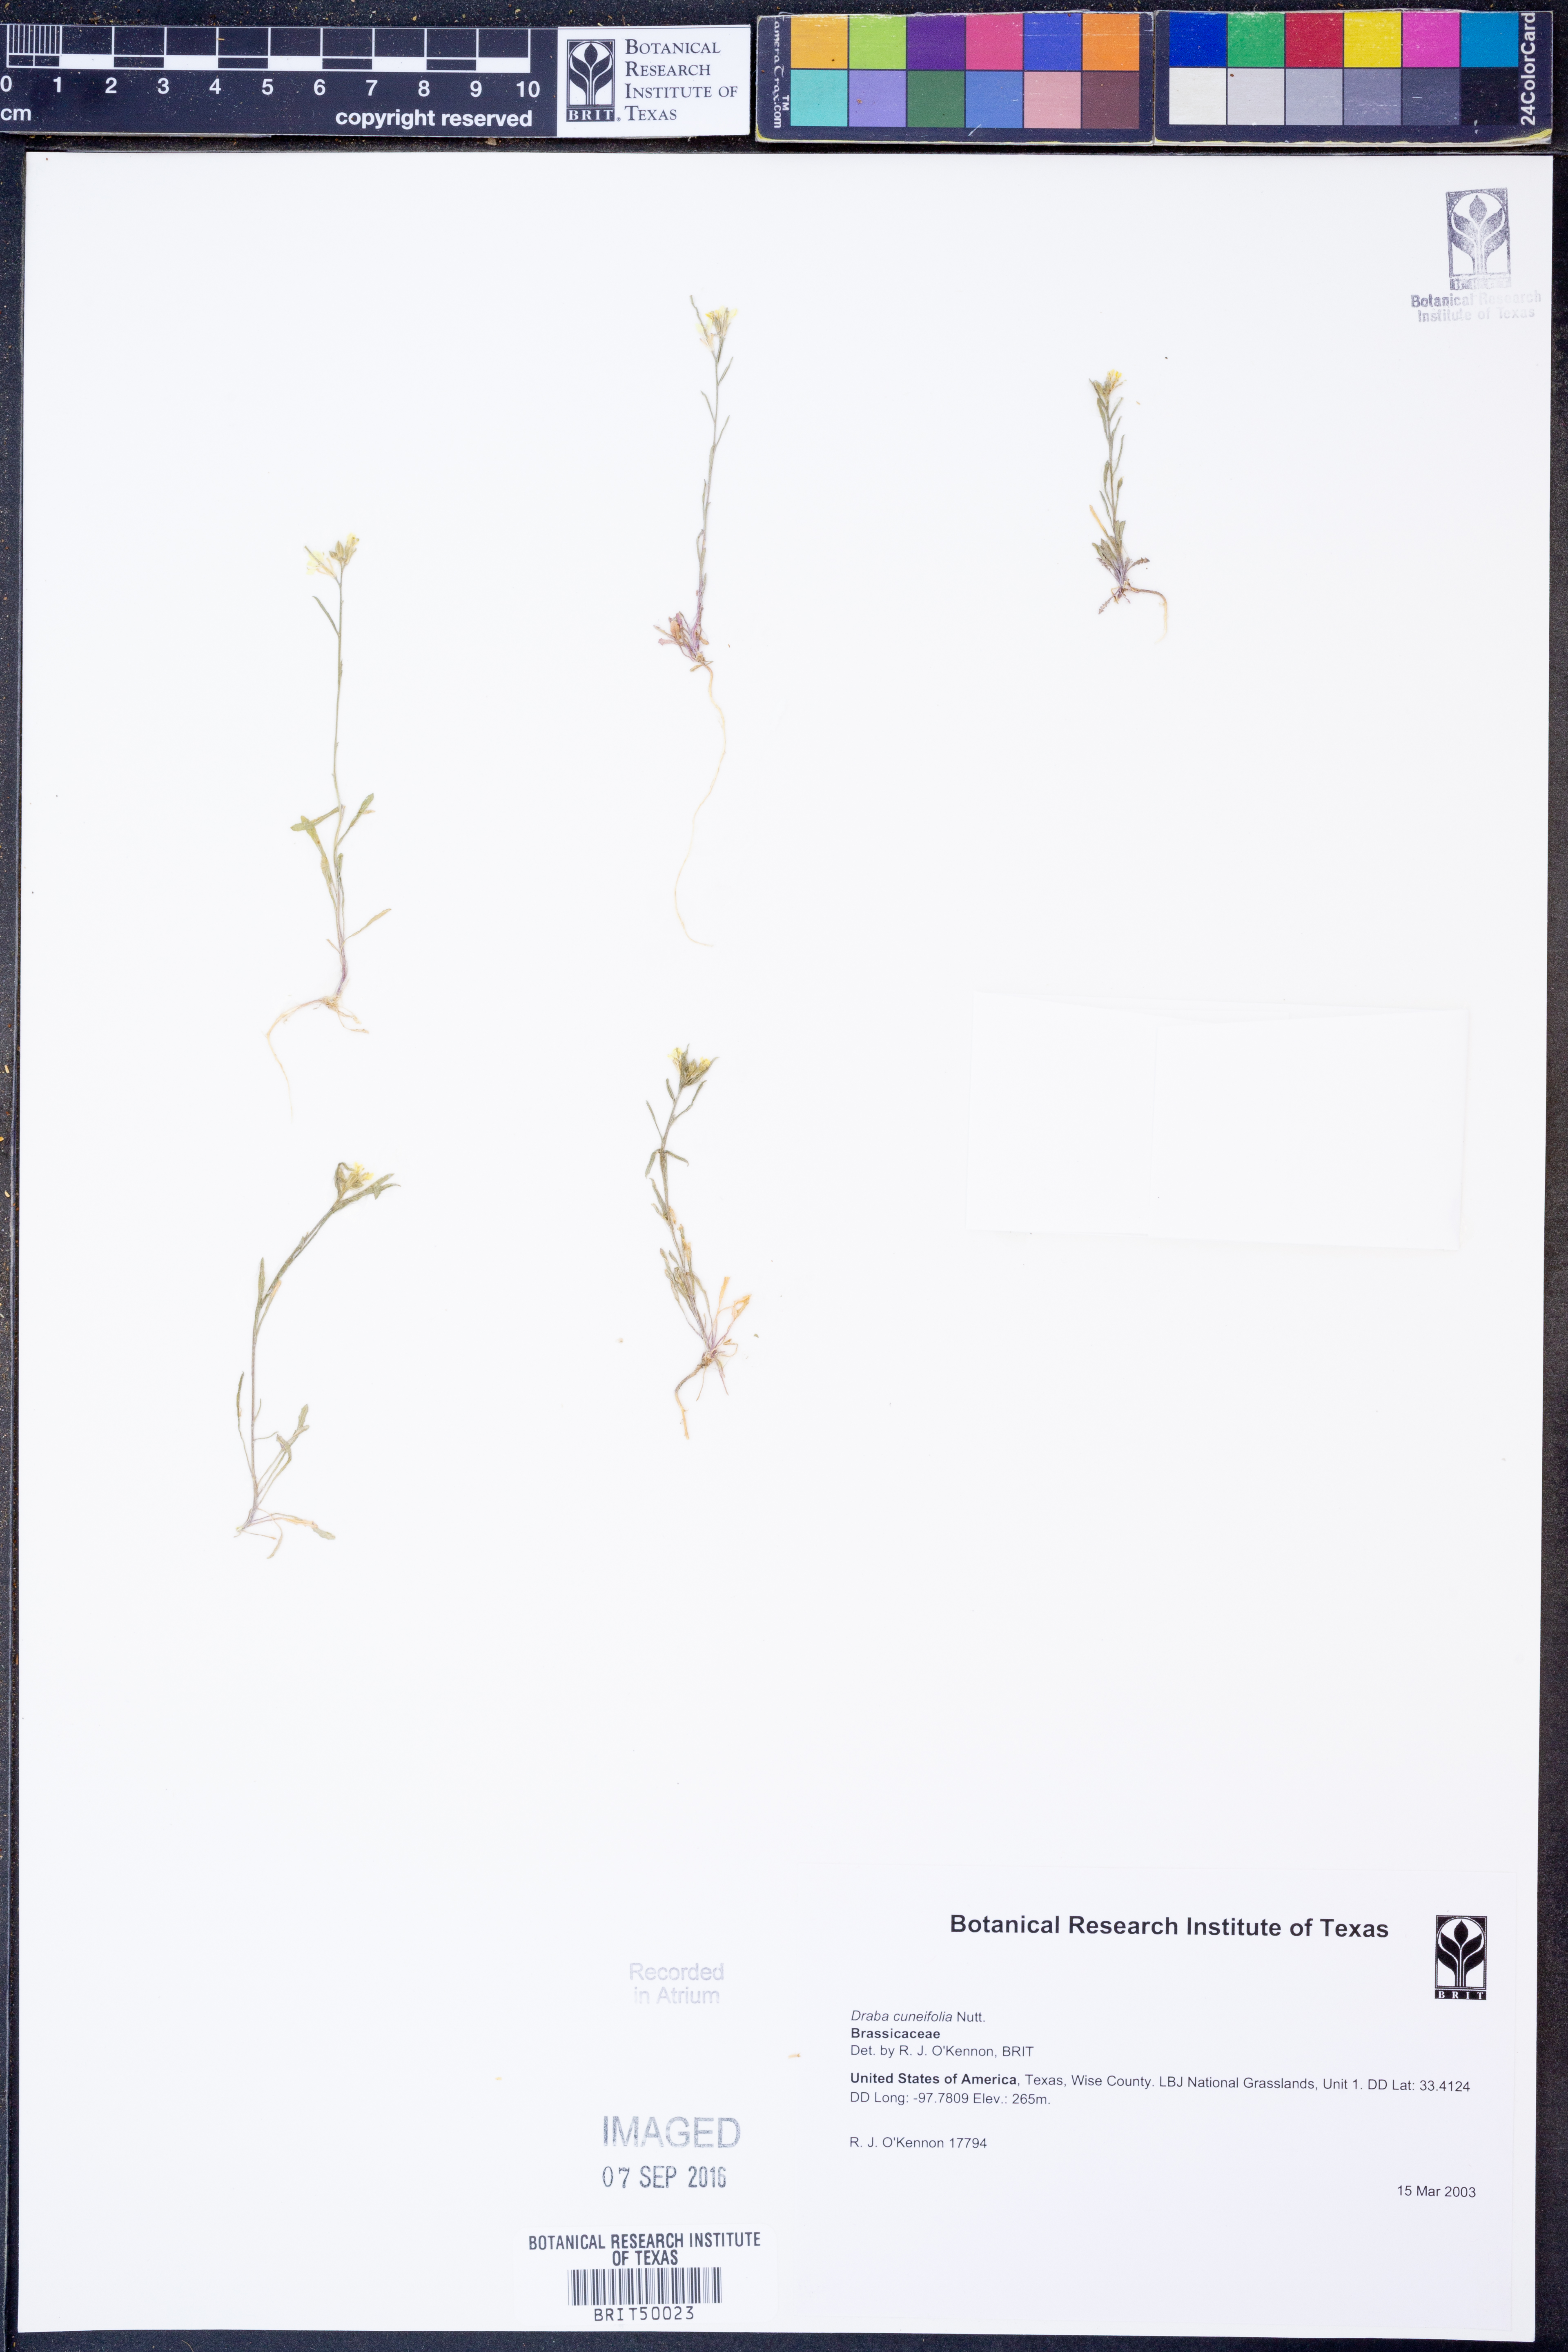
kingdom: Plantae
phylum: Tracheophyta
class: Magnoliopsida
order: Brassicales
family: Brassicaceae
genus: Tomostima
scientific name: Tomostima cuneifolia
